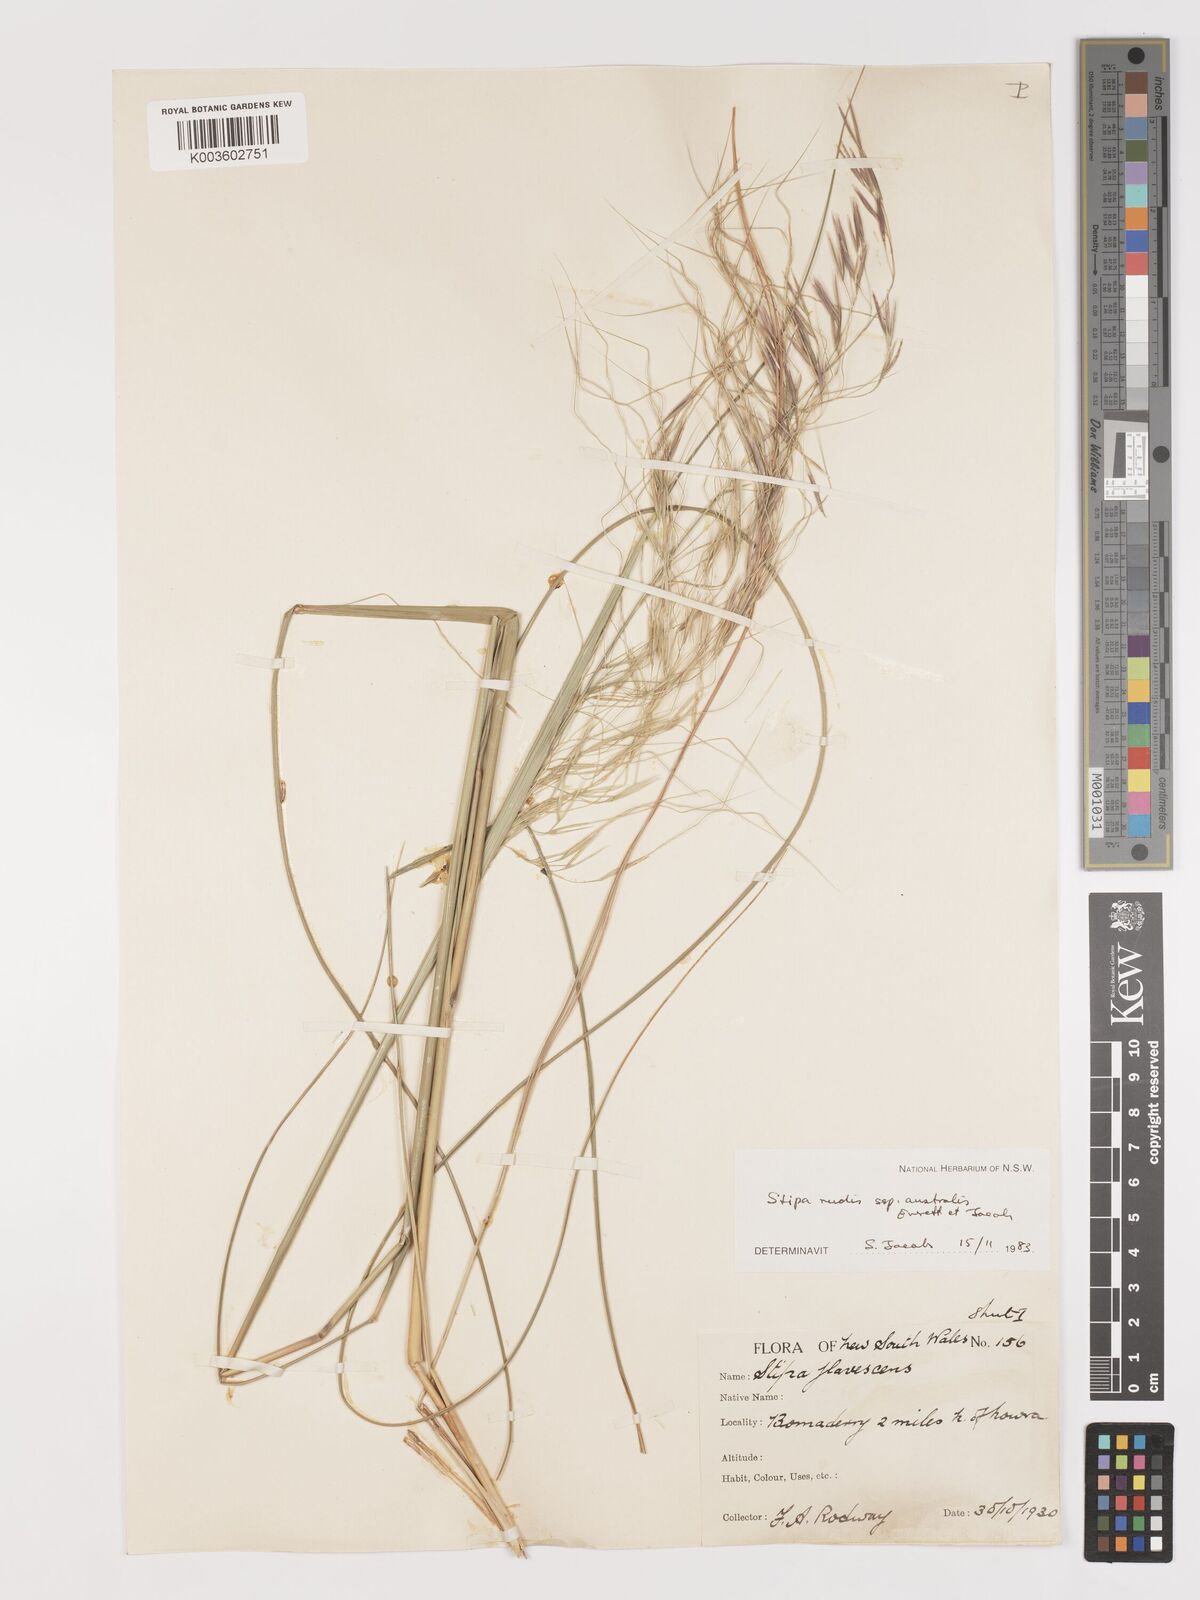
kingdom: Plantae
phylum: Tracheophyta
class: Liliopsida
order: Poales
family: Poaceae
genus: Austrostipa
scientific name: Austrostipa rudis
